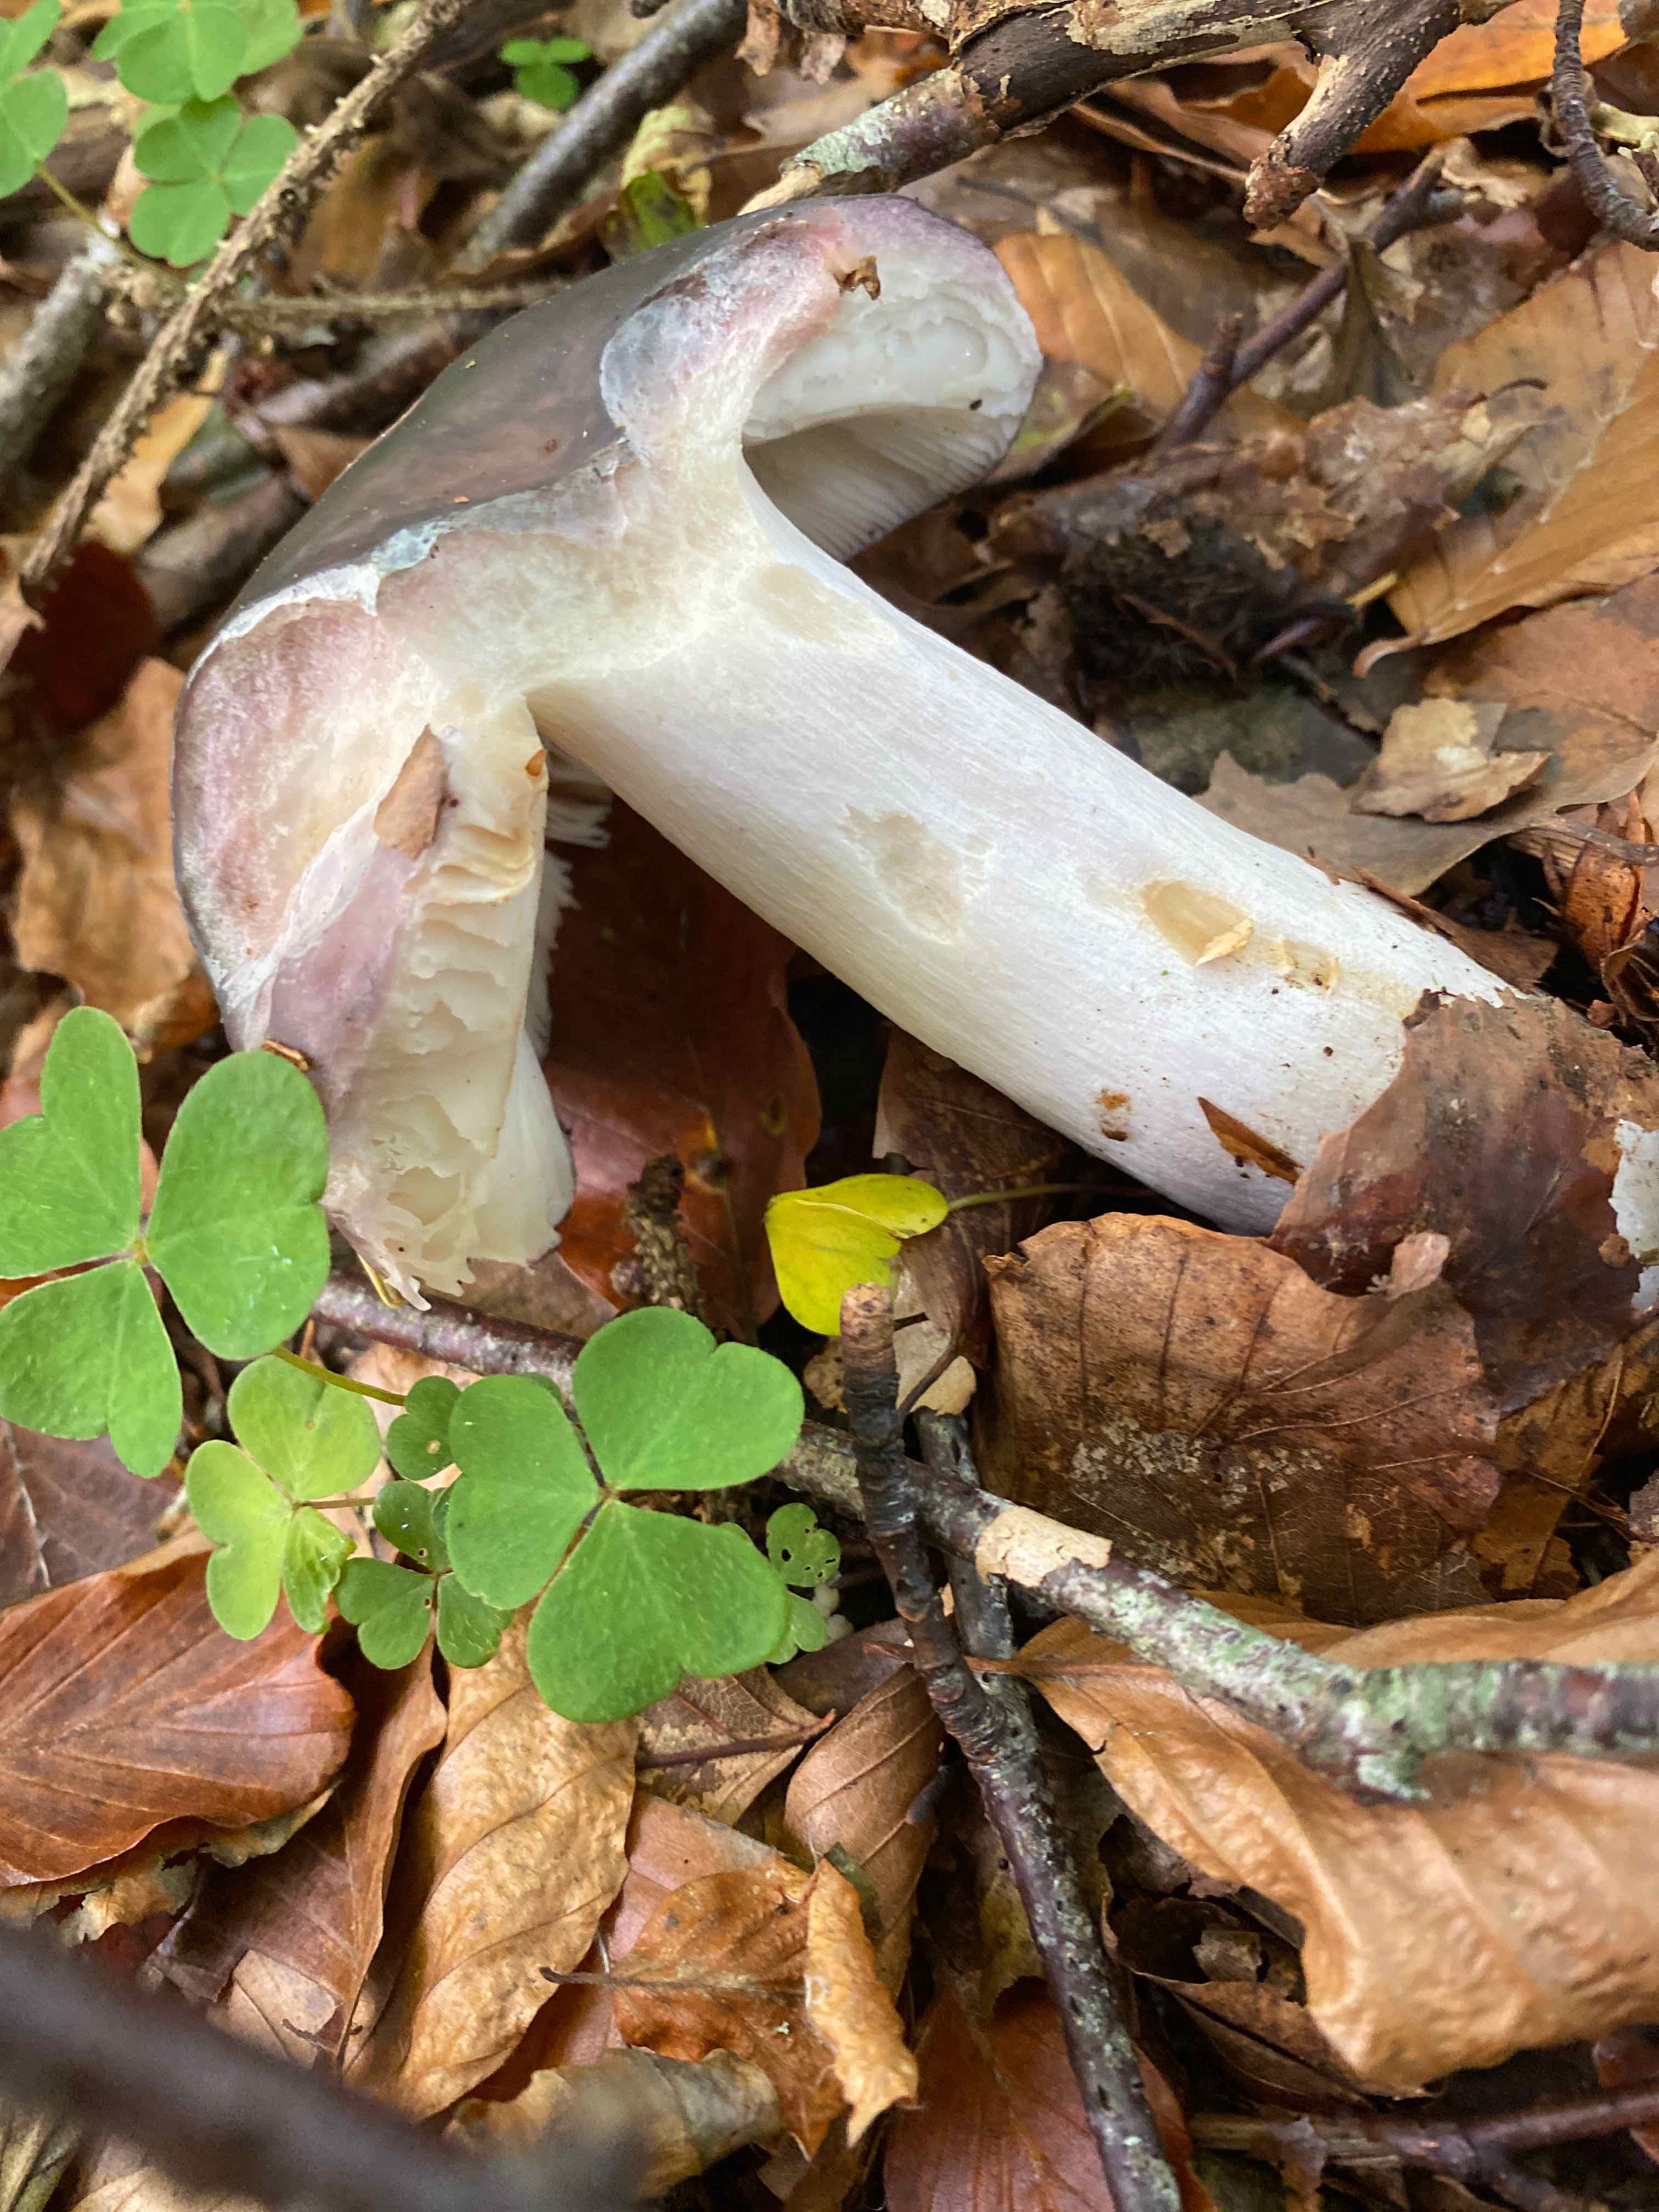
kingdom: Fungi
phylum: Basidiomycota
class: Agaricomycetes
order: Russulales
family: Russulaceae
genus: Russula
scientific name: Russula cyanoxantha
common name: broget skørhat
